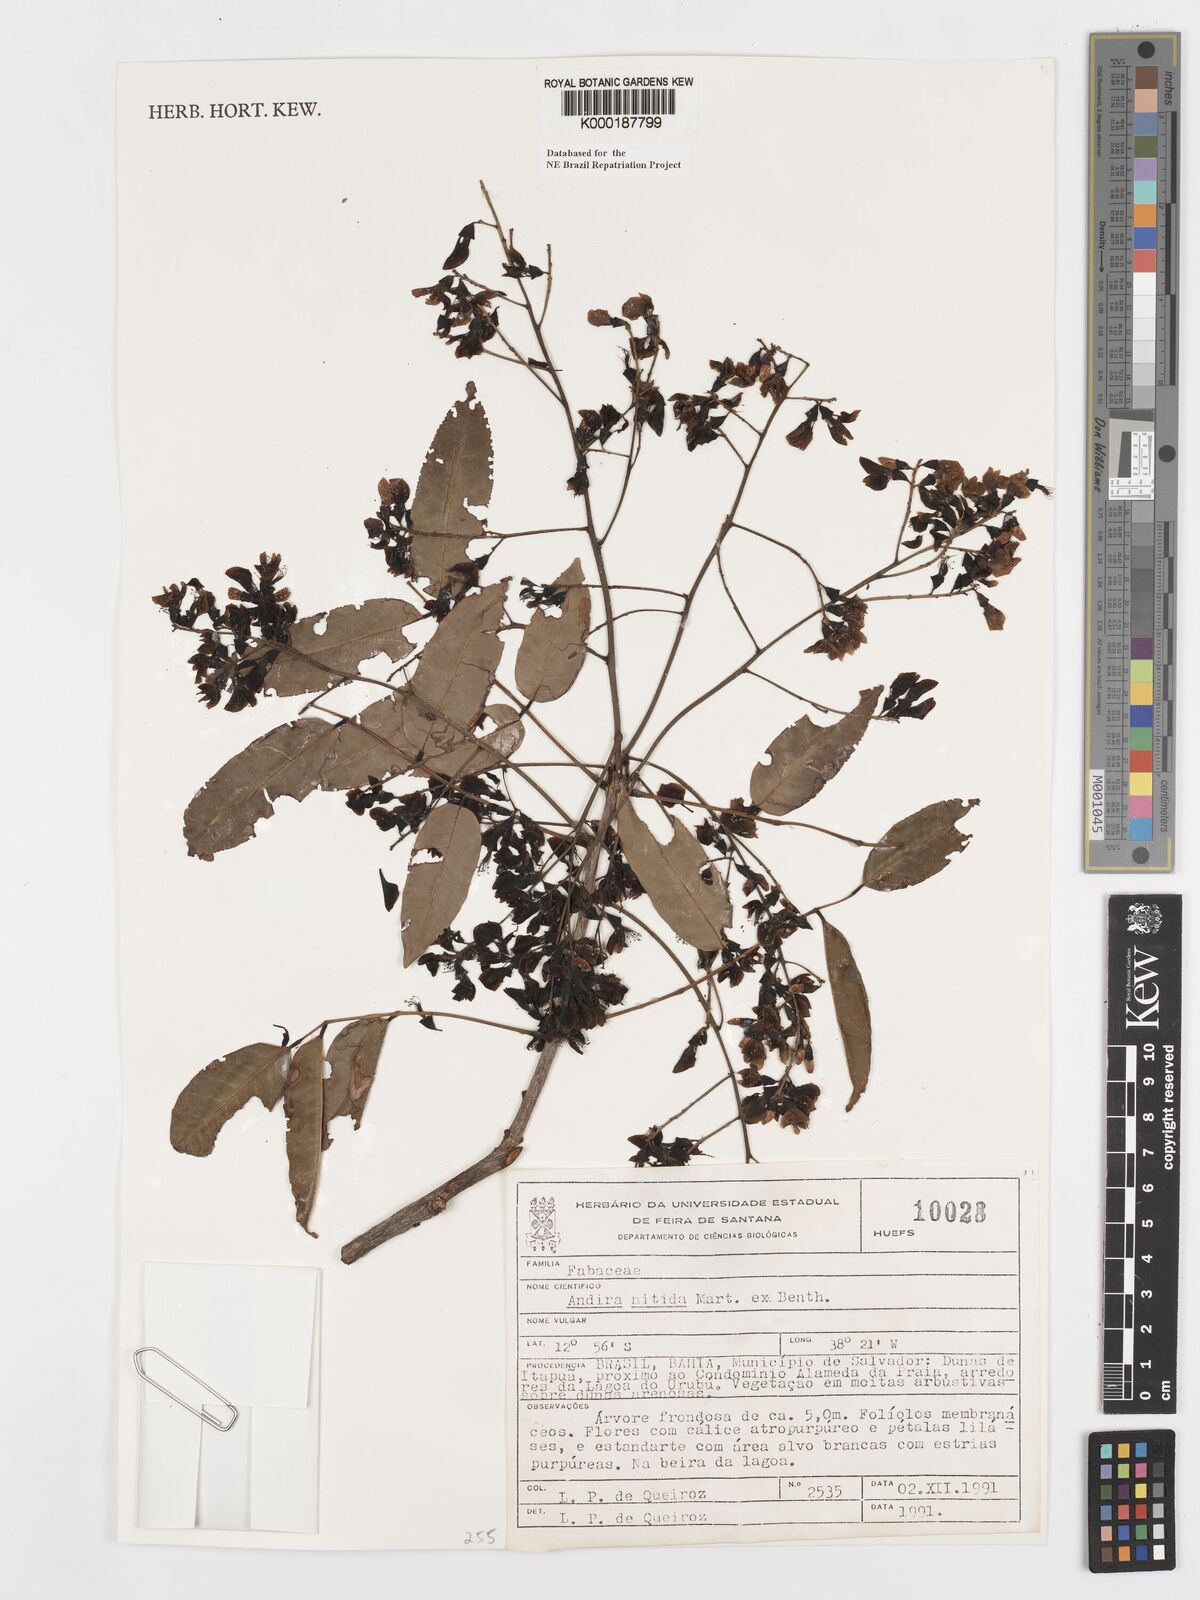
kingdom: Plantae
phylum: Tracheophyta
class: Magnoliopsida
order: Fabales
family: Fabaceae
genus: Andira
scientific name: Andira nitida
